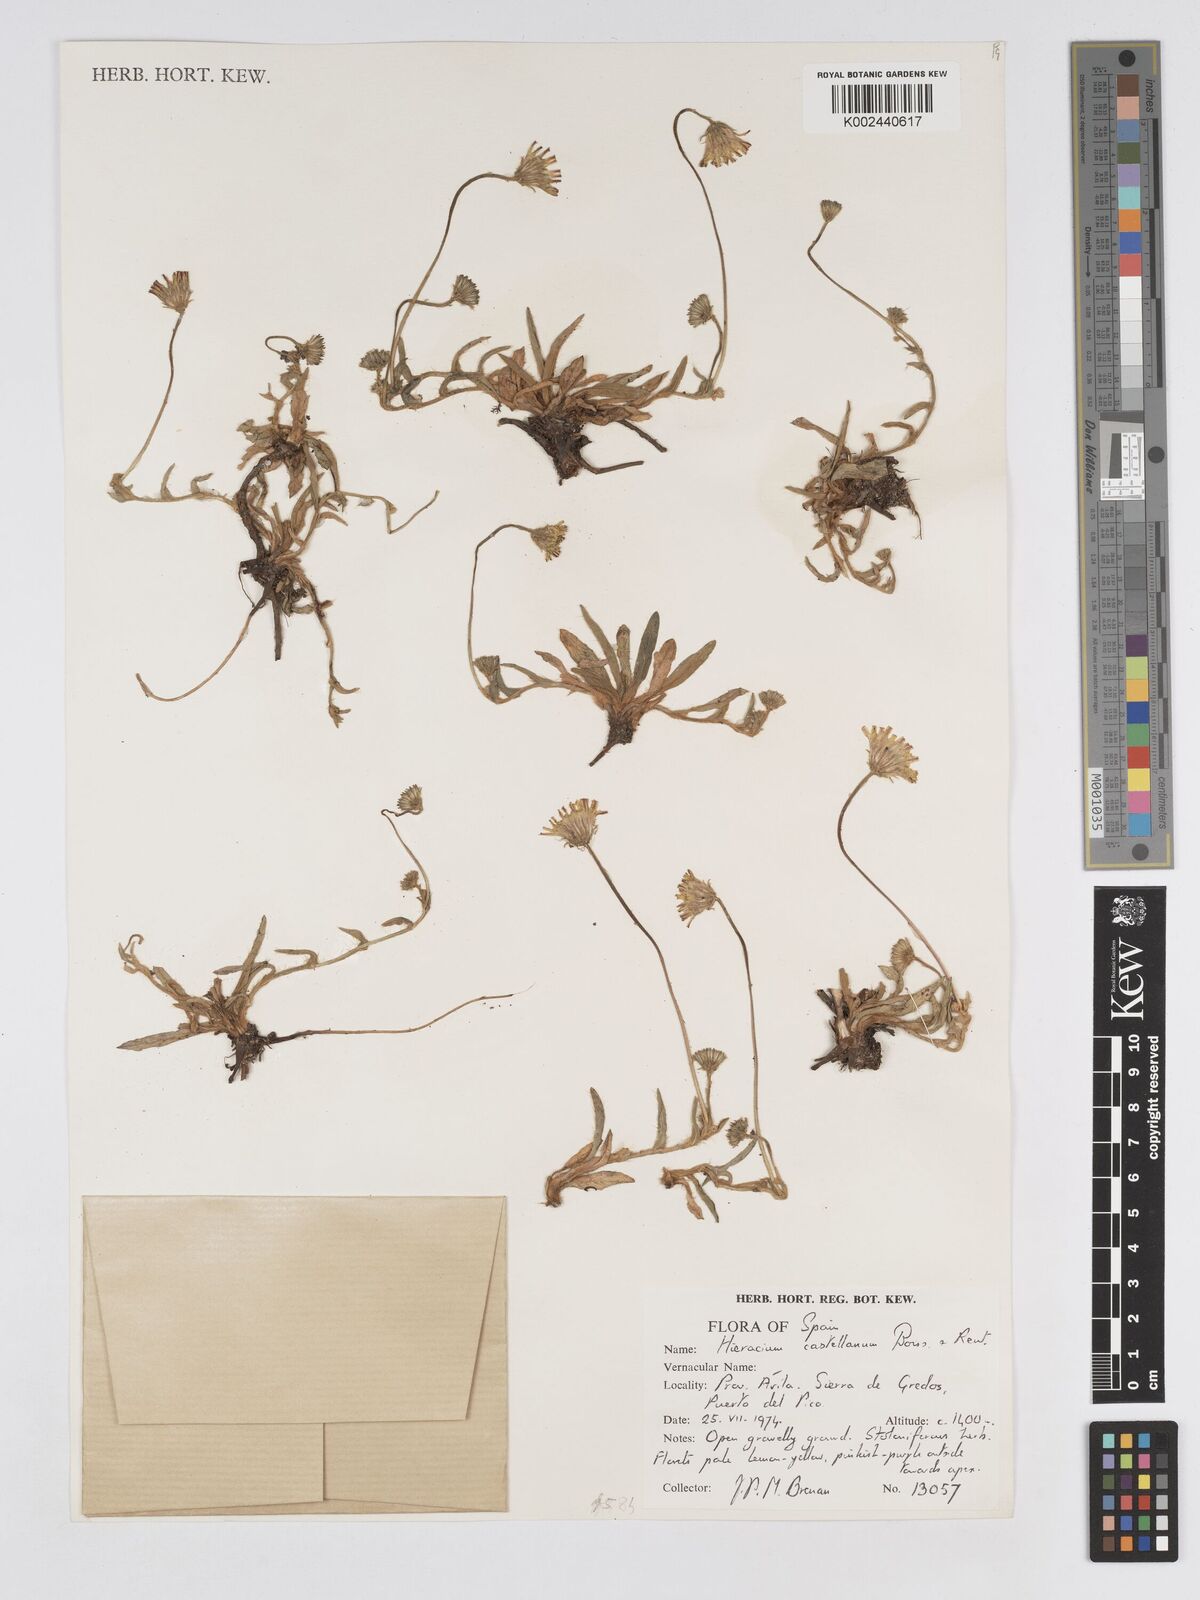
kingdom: Plantae
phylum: Tracheophyta
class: Magnoliopsida
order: Asterales
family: Asteraceae
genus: Pilosella
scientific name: Pilosella castellana
